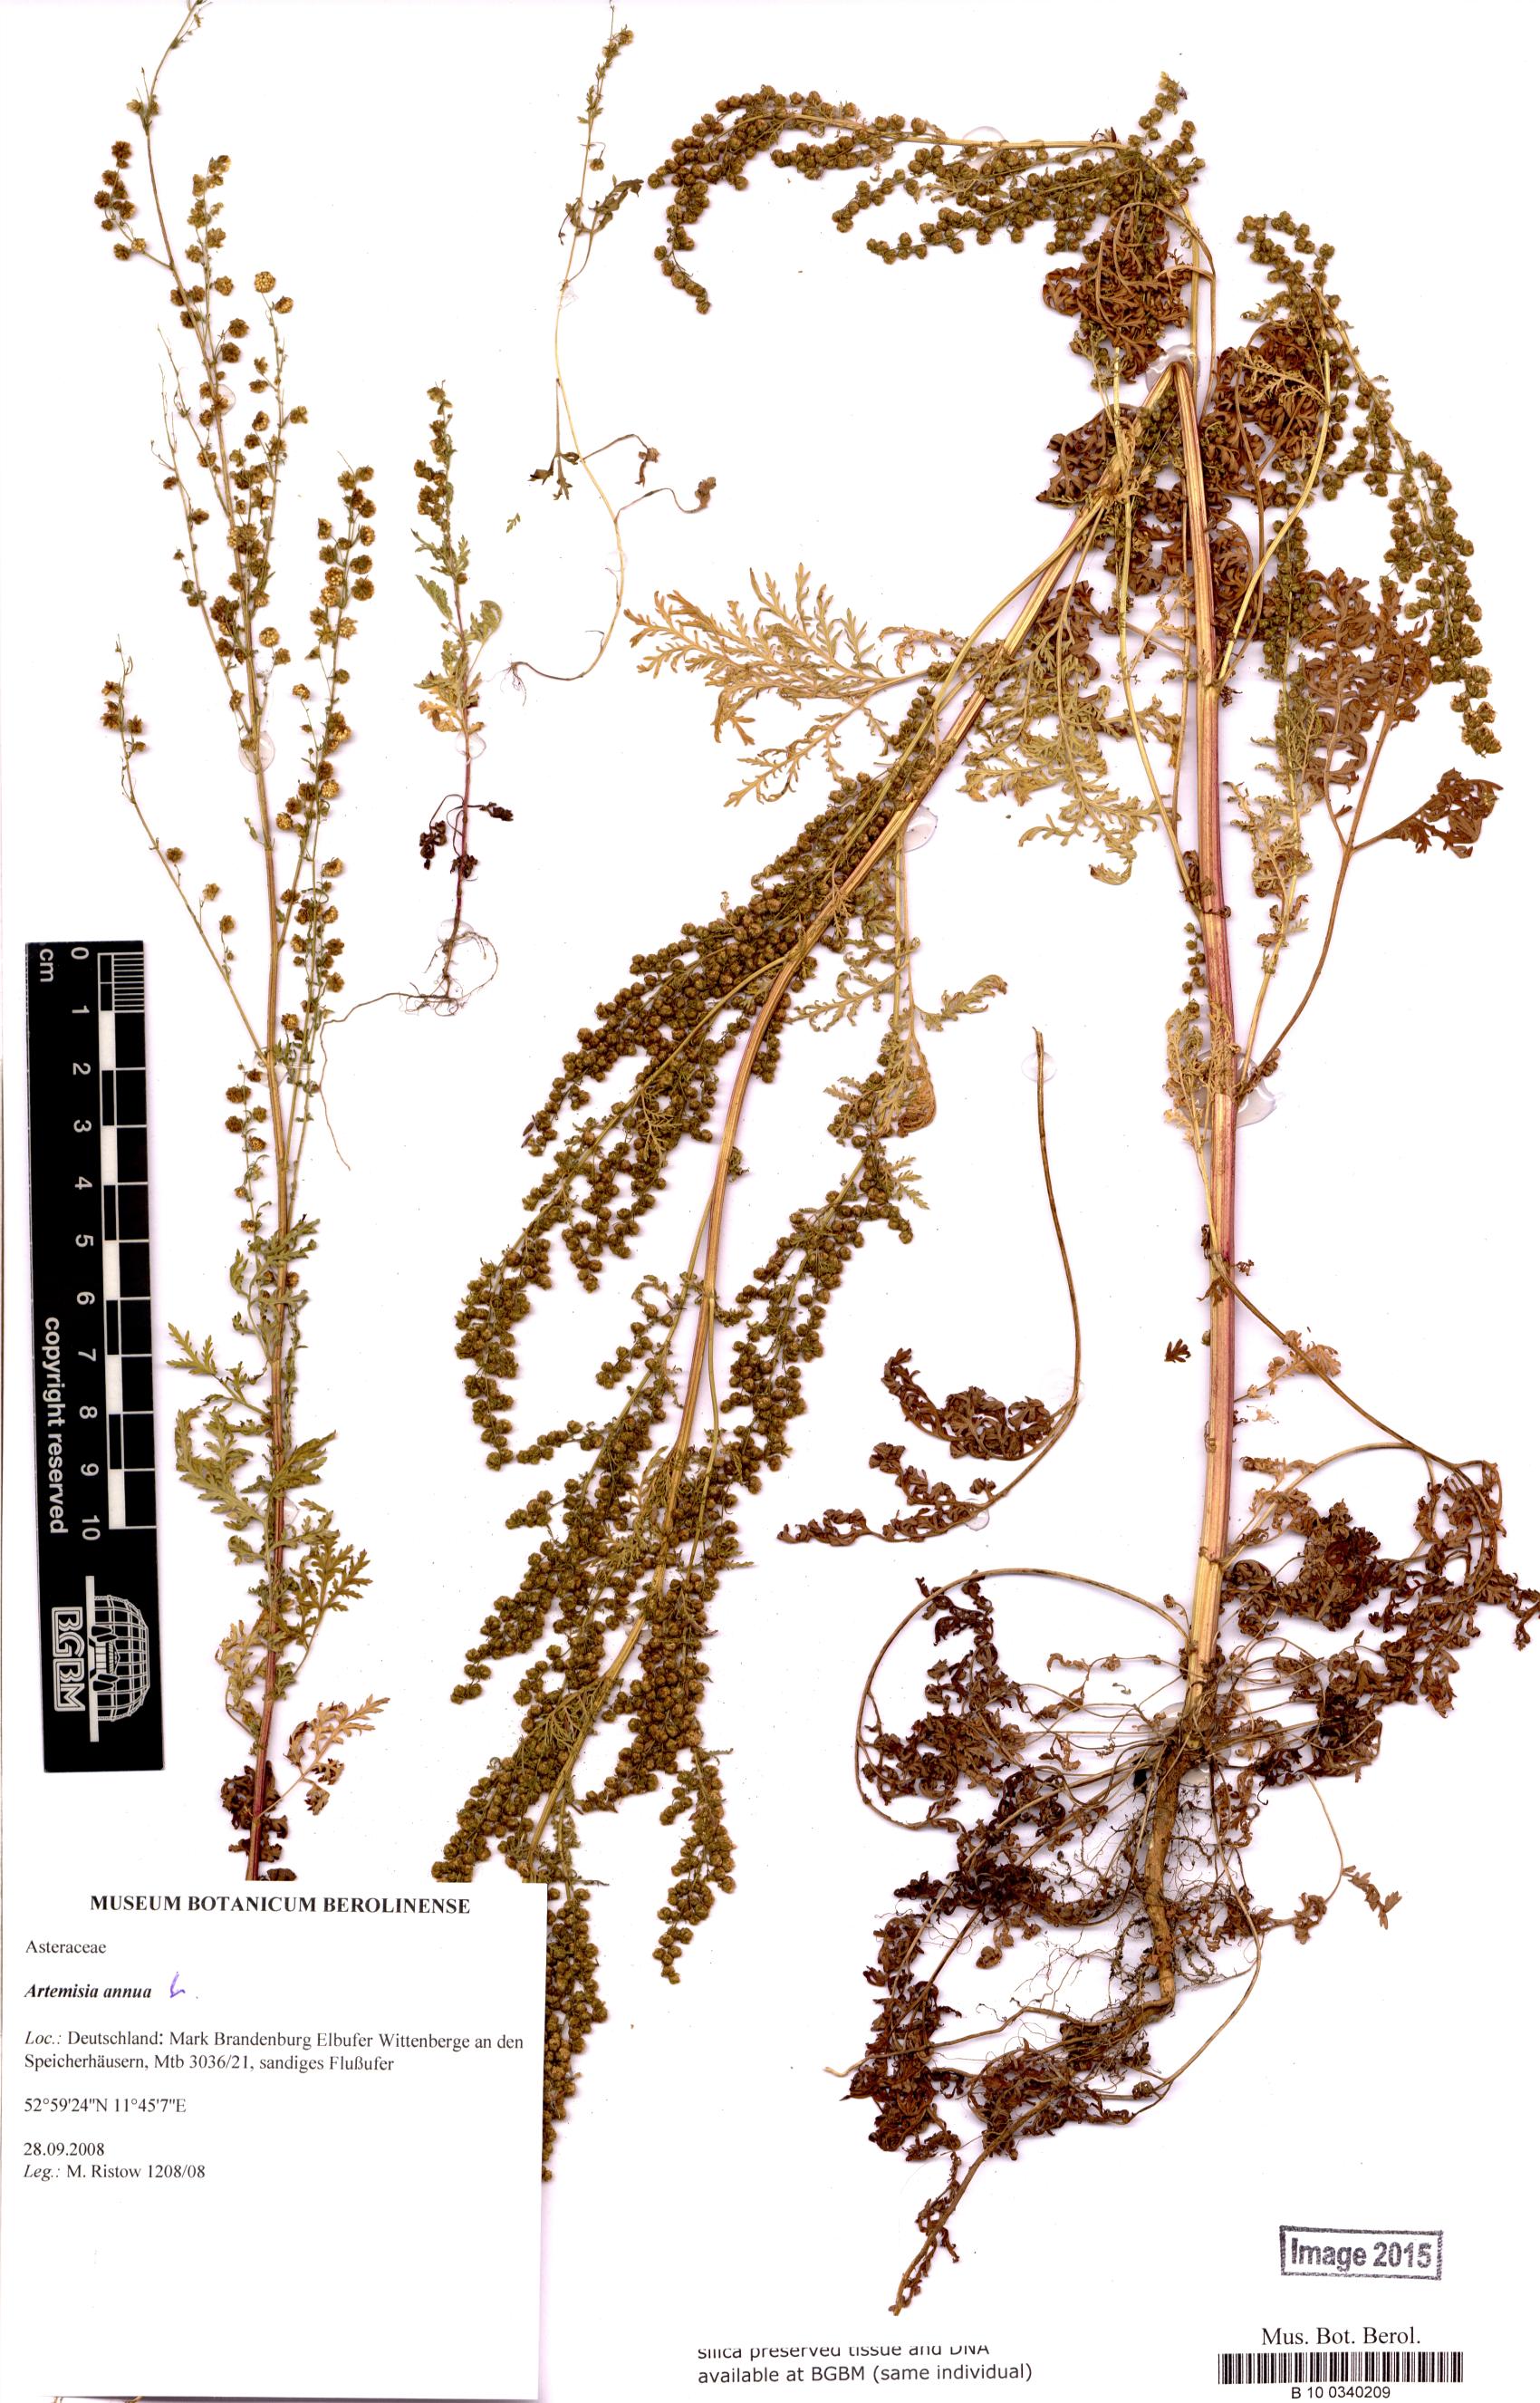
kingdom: Plantae
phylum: Tracheophyta
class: Magnoliopsida
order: Asterales
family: Asteraceae
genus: Artemisia
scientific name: Artemisia annua
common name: Sweet sagewort
